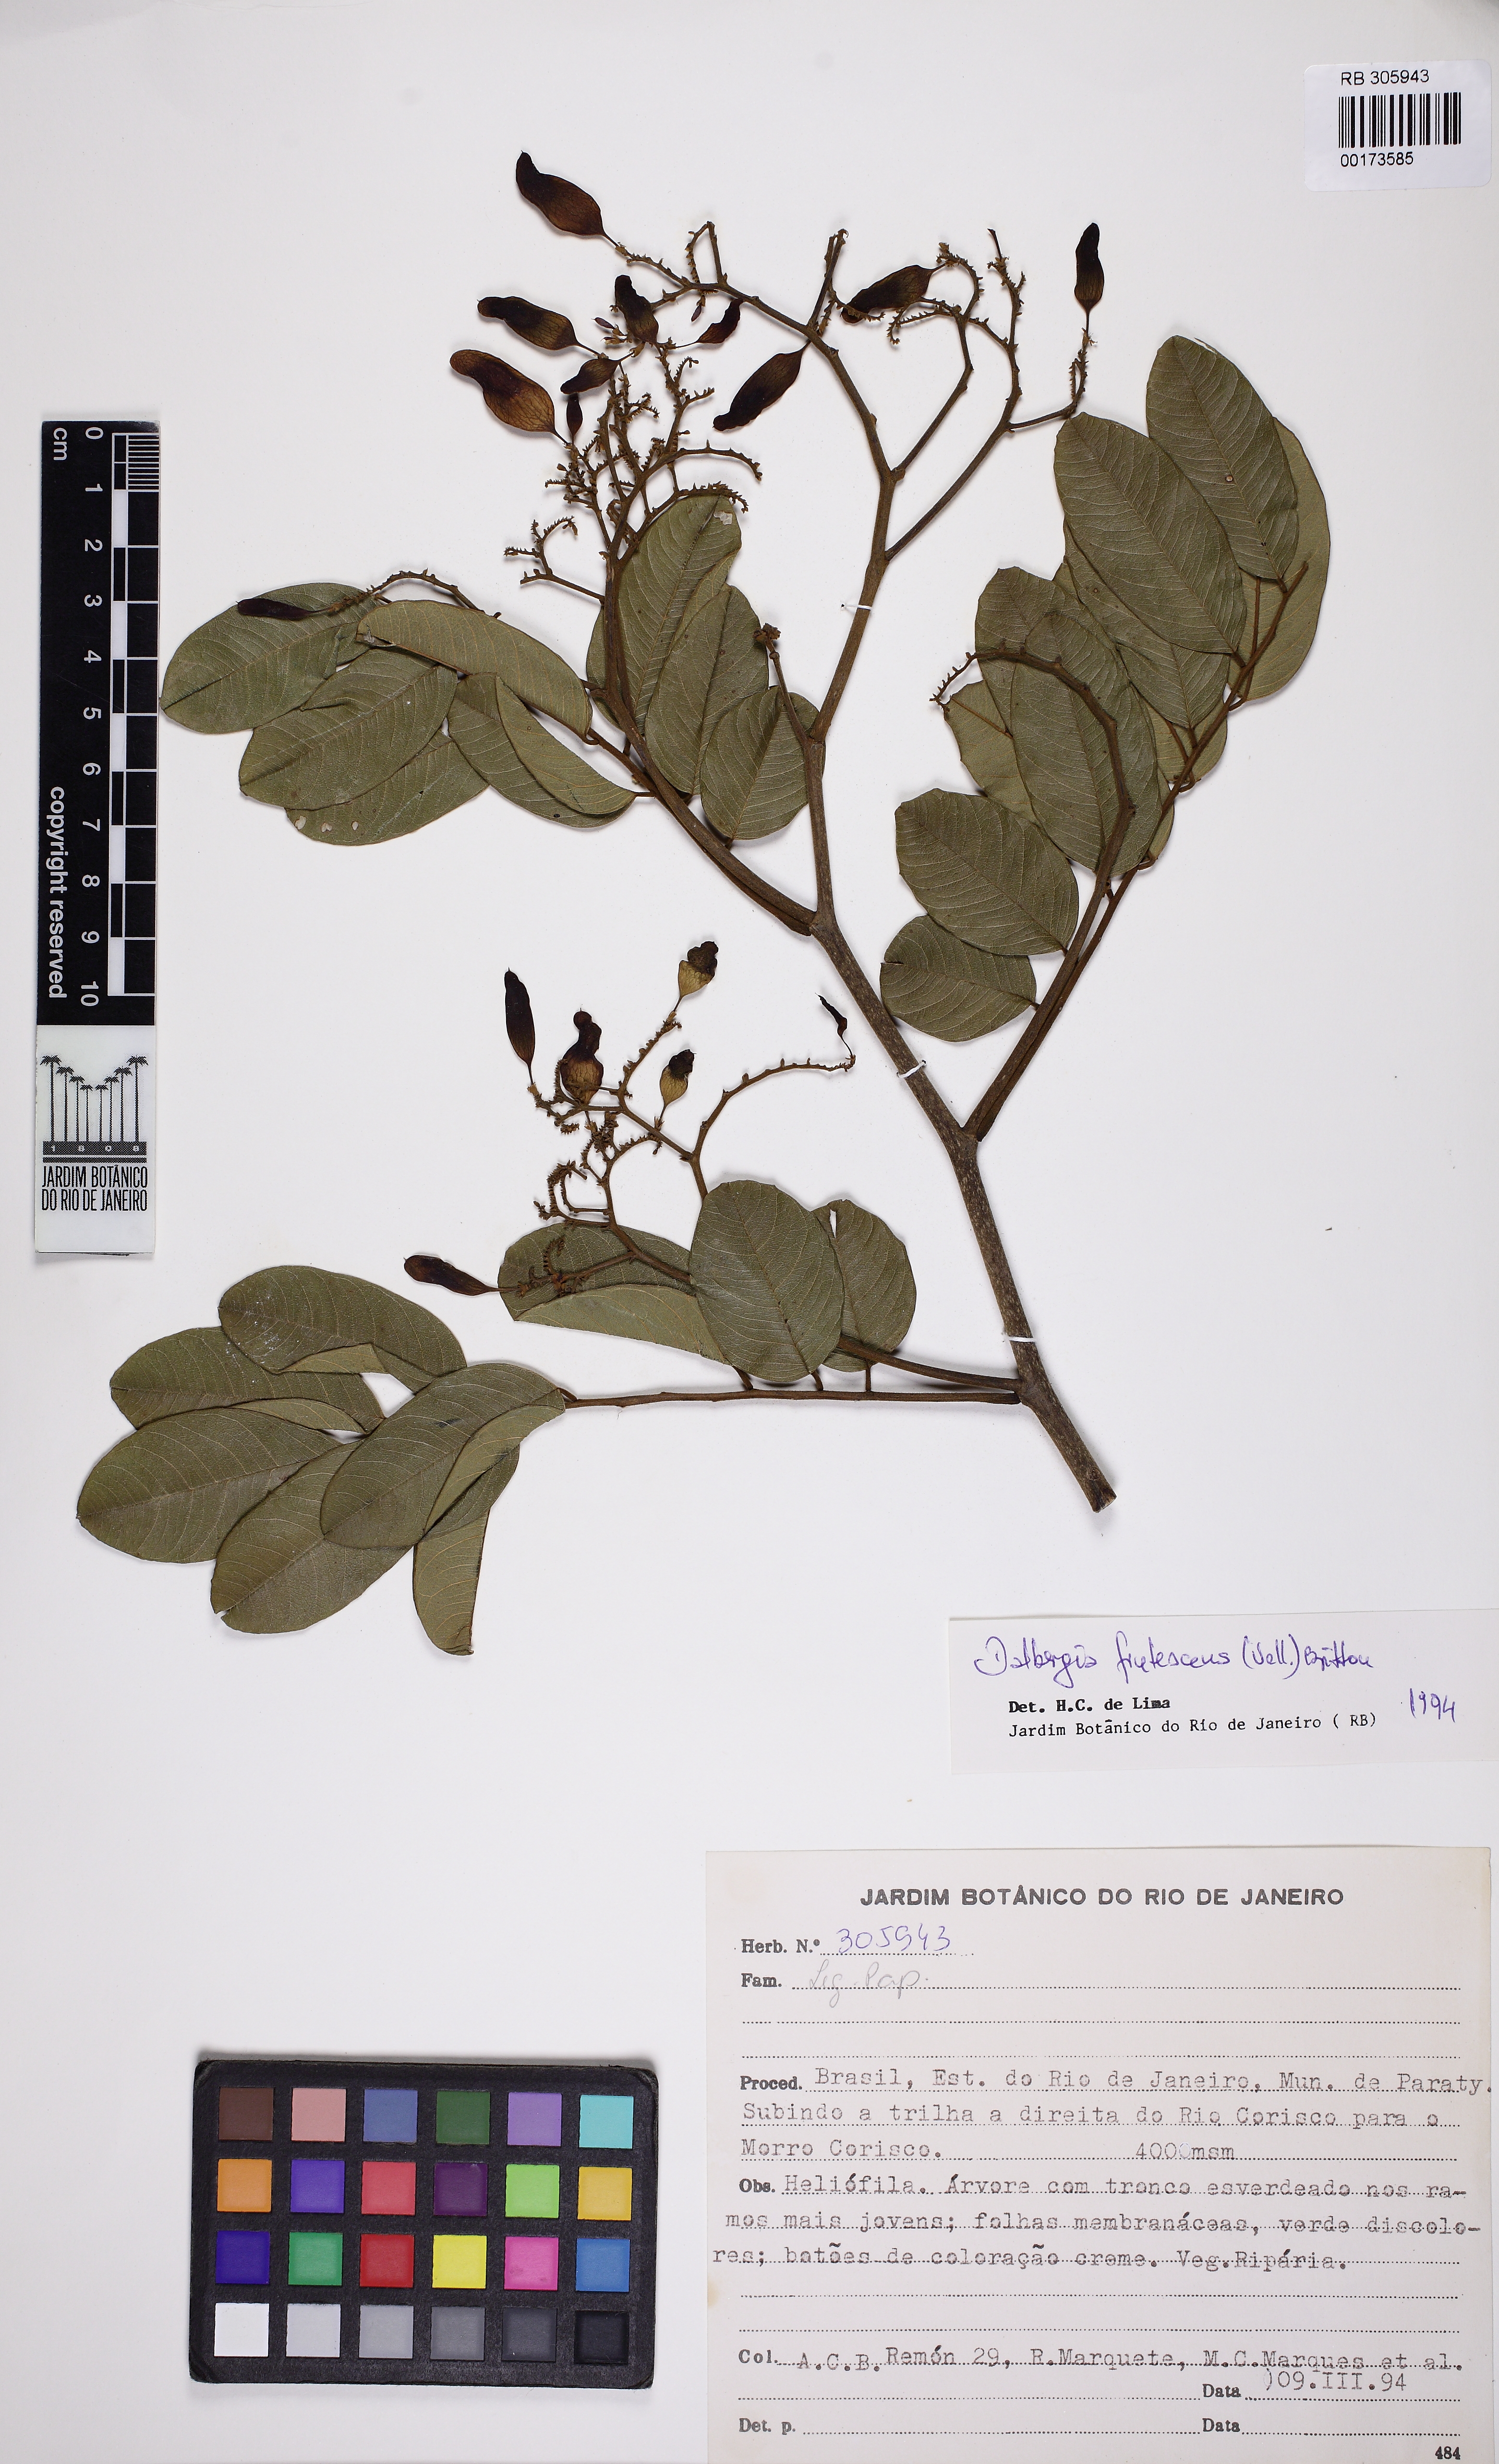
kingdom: Plantae
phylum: Tracheophyta
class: Magnoliopsida
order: Fabales
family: Fabaceae
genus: Dalbergia
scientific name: Dalbergia frutescens
